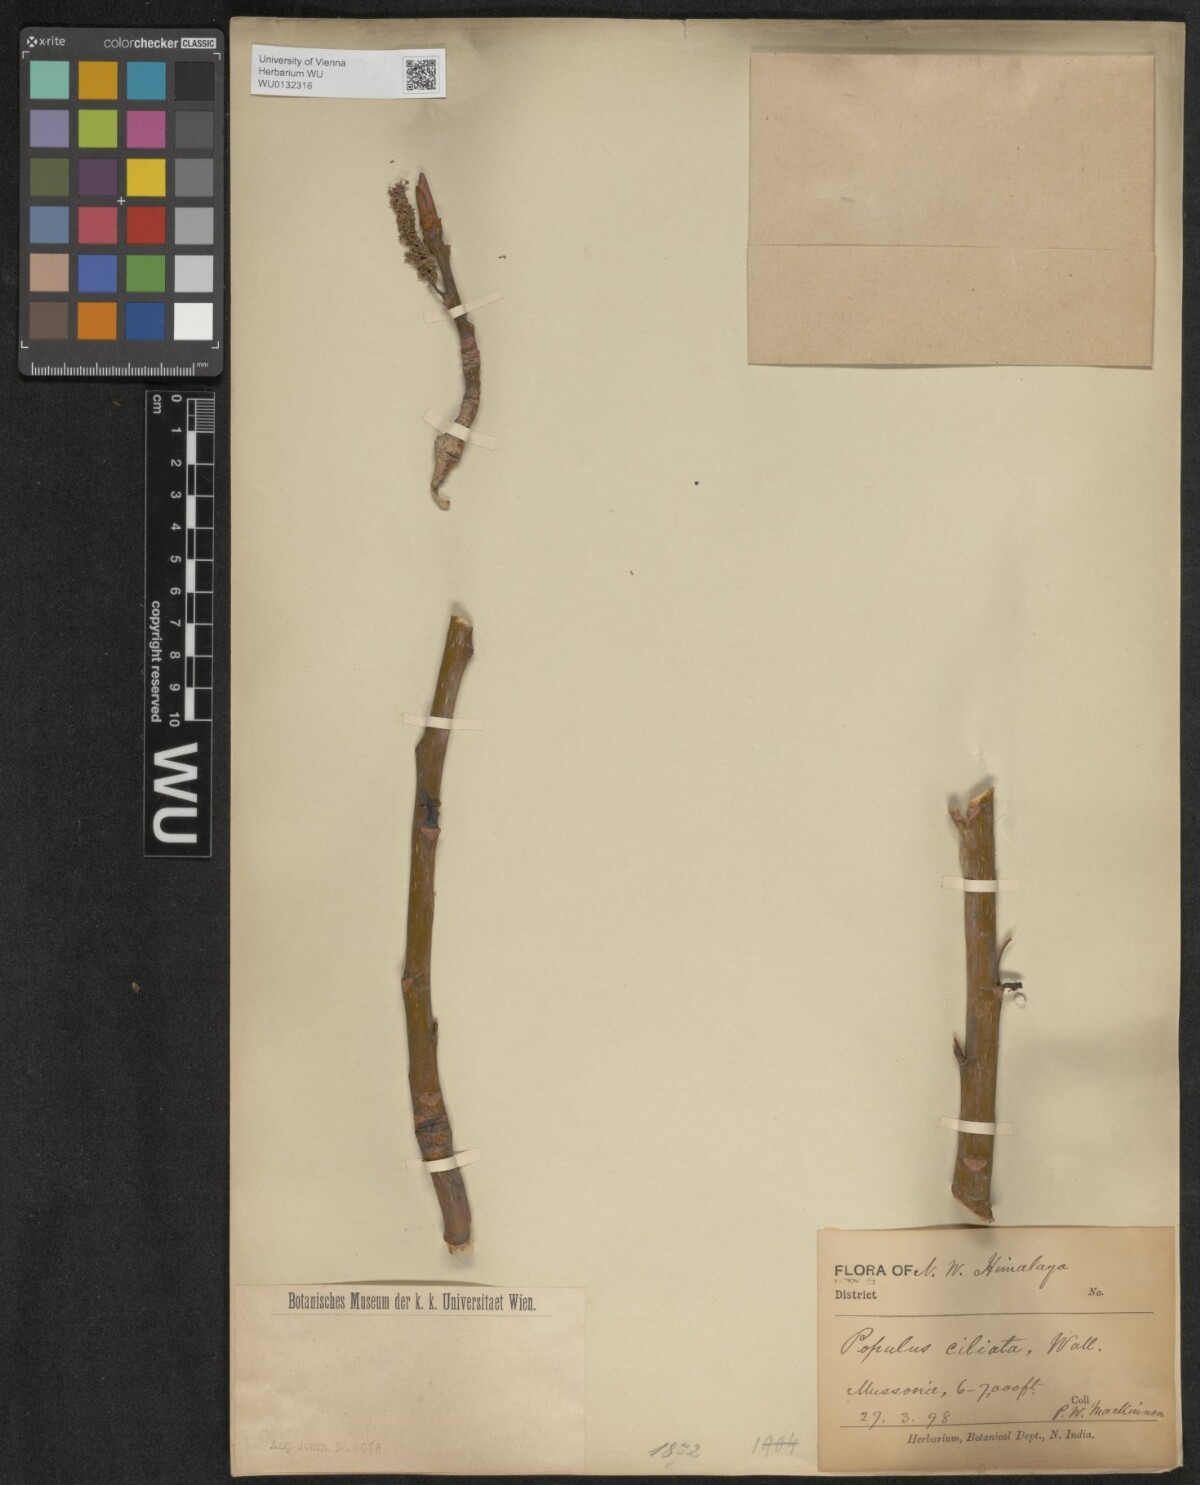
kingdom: Plantae
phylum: Tracheophyta
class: Magnoliopsida
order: Malpighiales
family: Salicaceae
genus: Populus
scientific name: Populus ciliata
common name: Himalayan poplar
